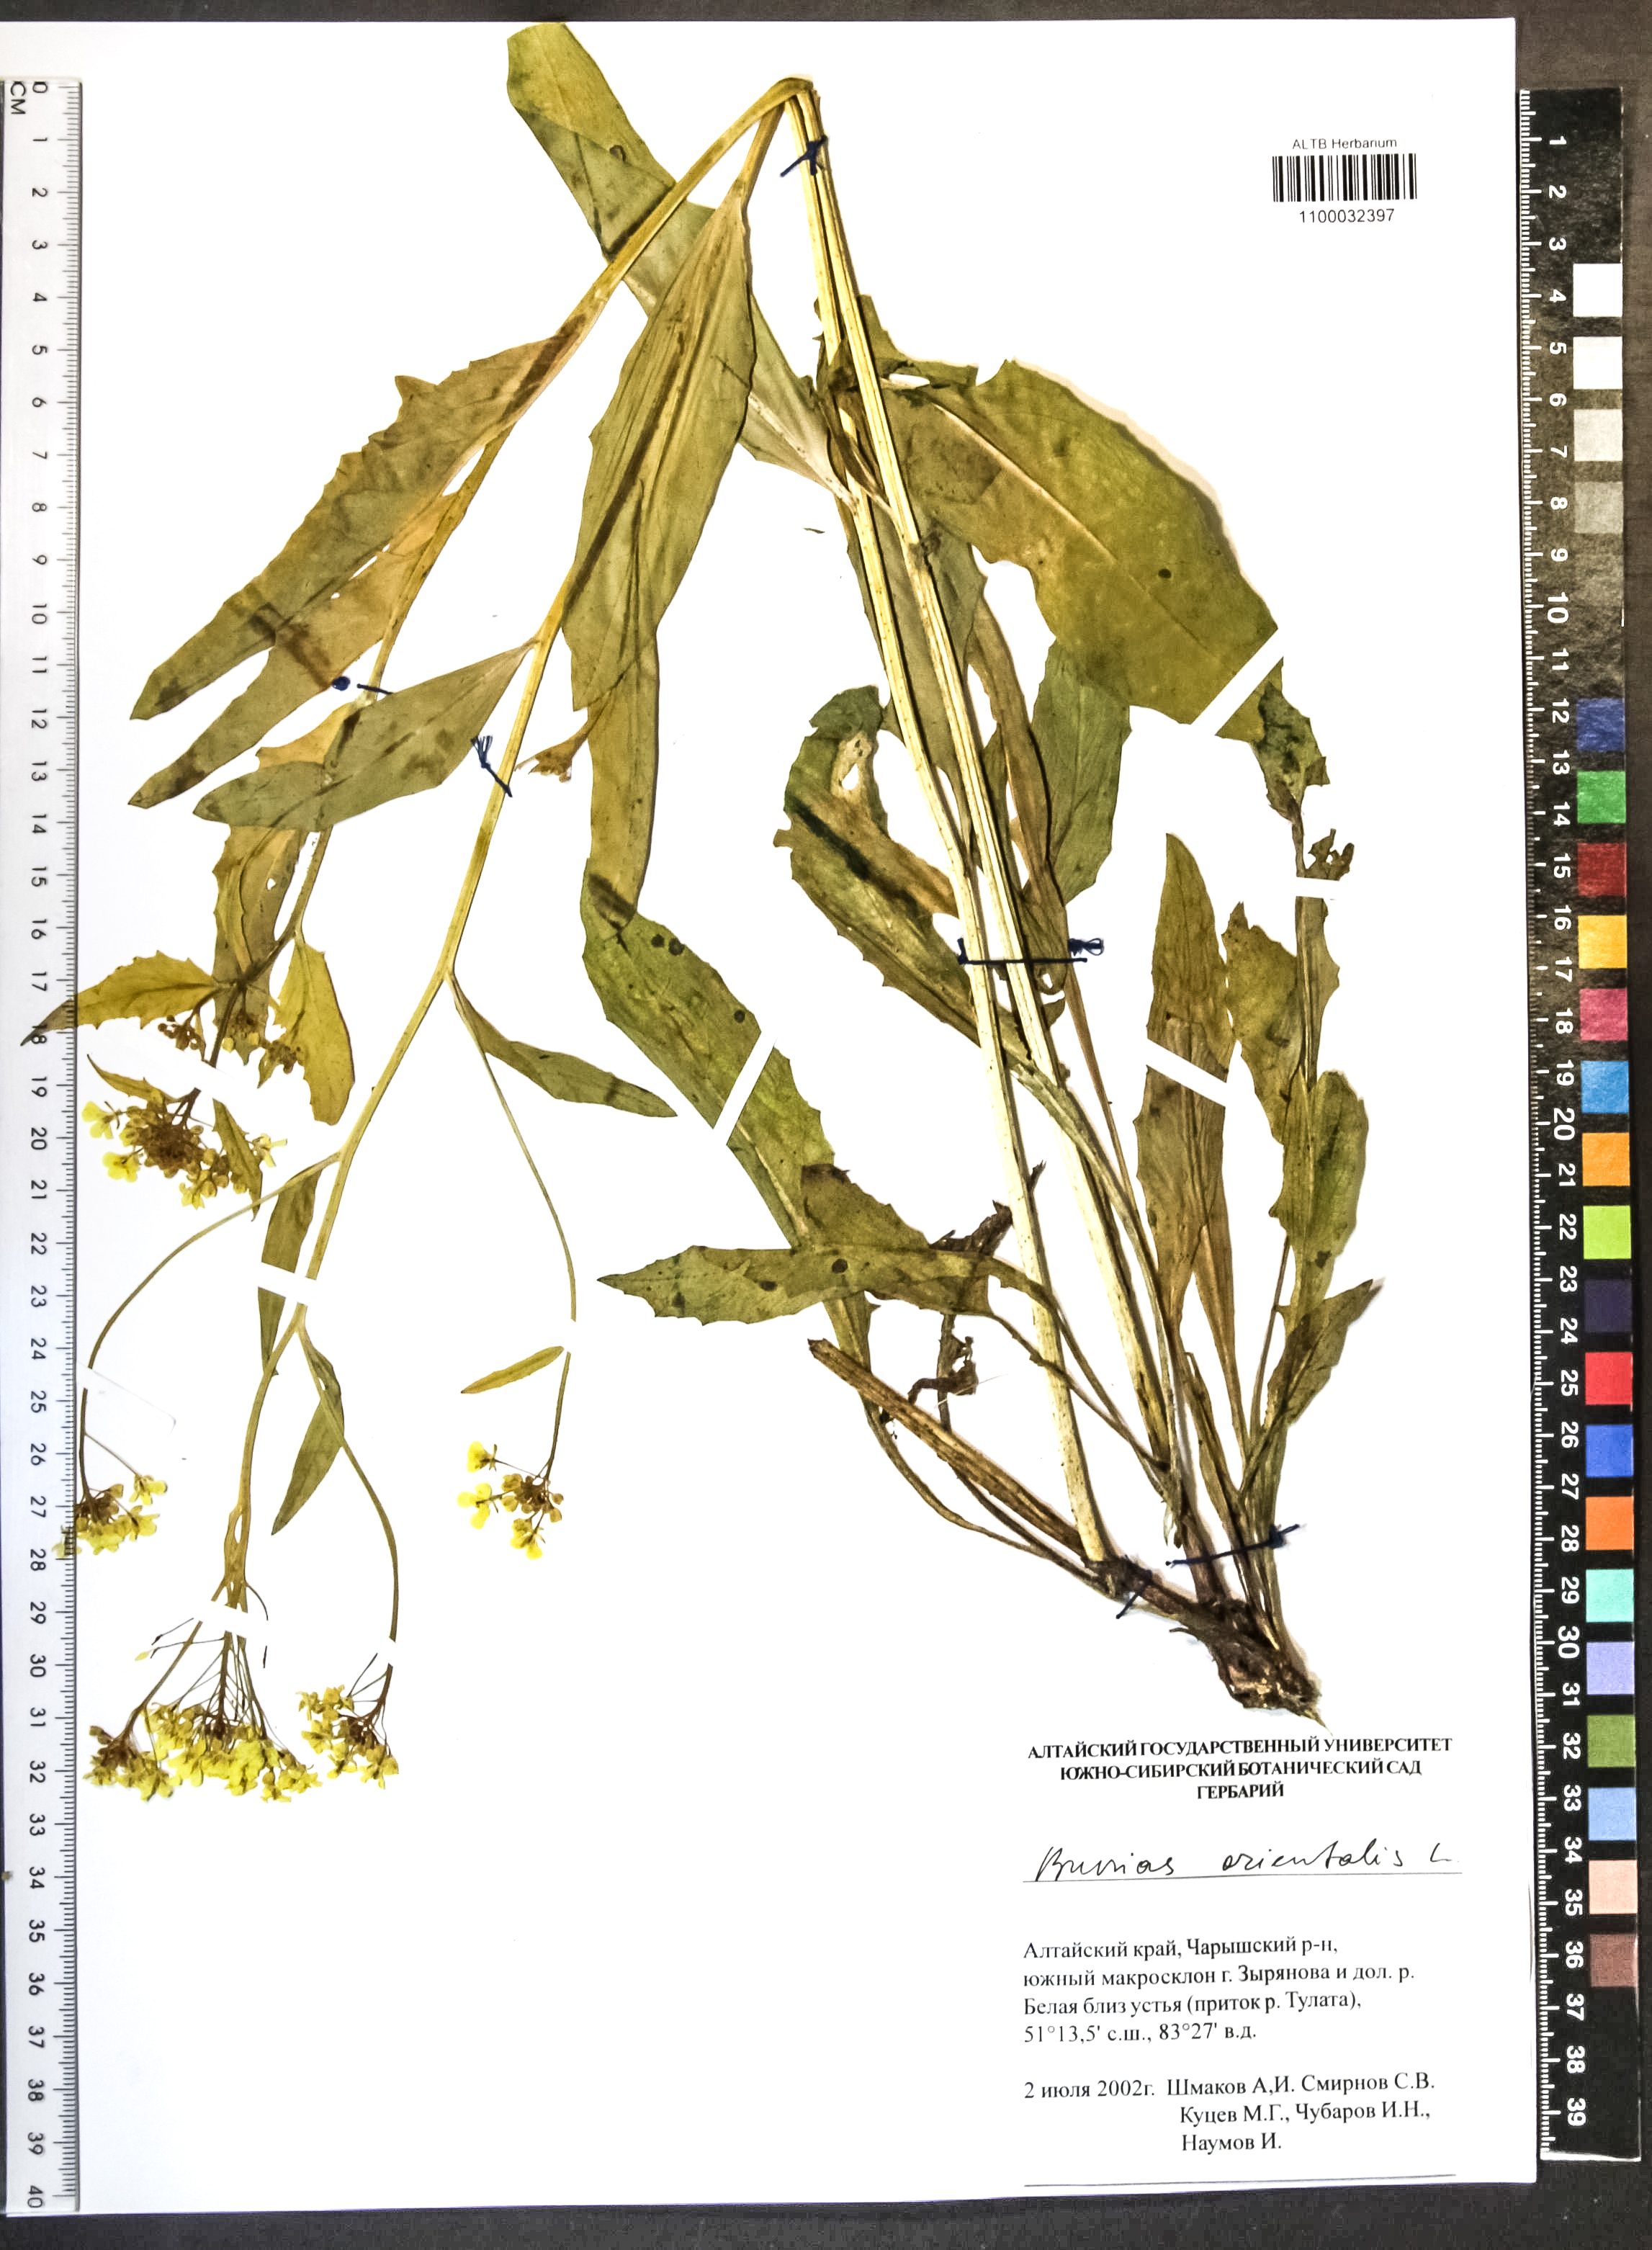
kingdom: Plantae
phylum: Tracheophyta
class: Magnoliopsida
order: Brassicales
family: Brassicaceae
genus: Bunias
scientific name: Bunias orientalis
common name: Warty-cabbage
